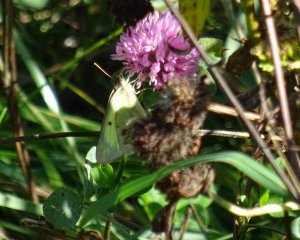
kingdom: Animalia
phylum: Arthropoda
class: Insecta
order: Lepidoptera
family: Pieridae
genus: Colias
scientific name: Colias philodice
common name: Clouded Sulphur
